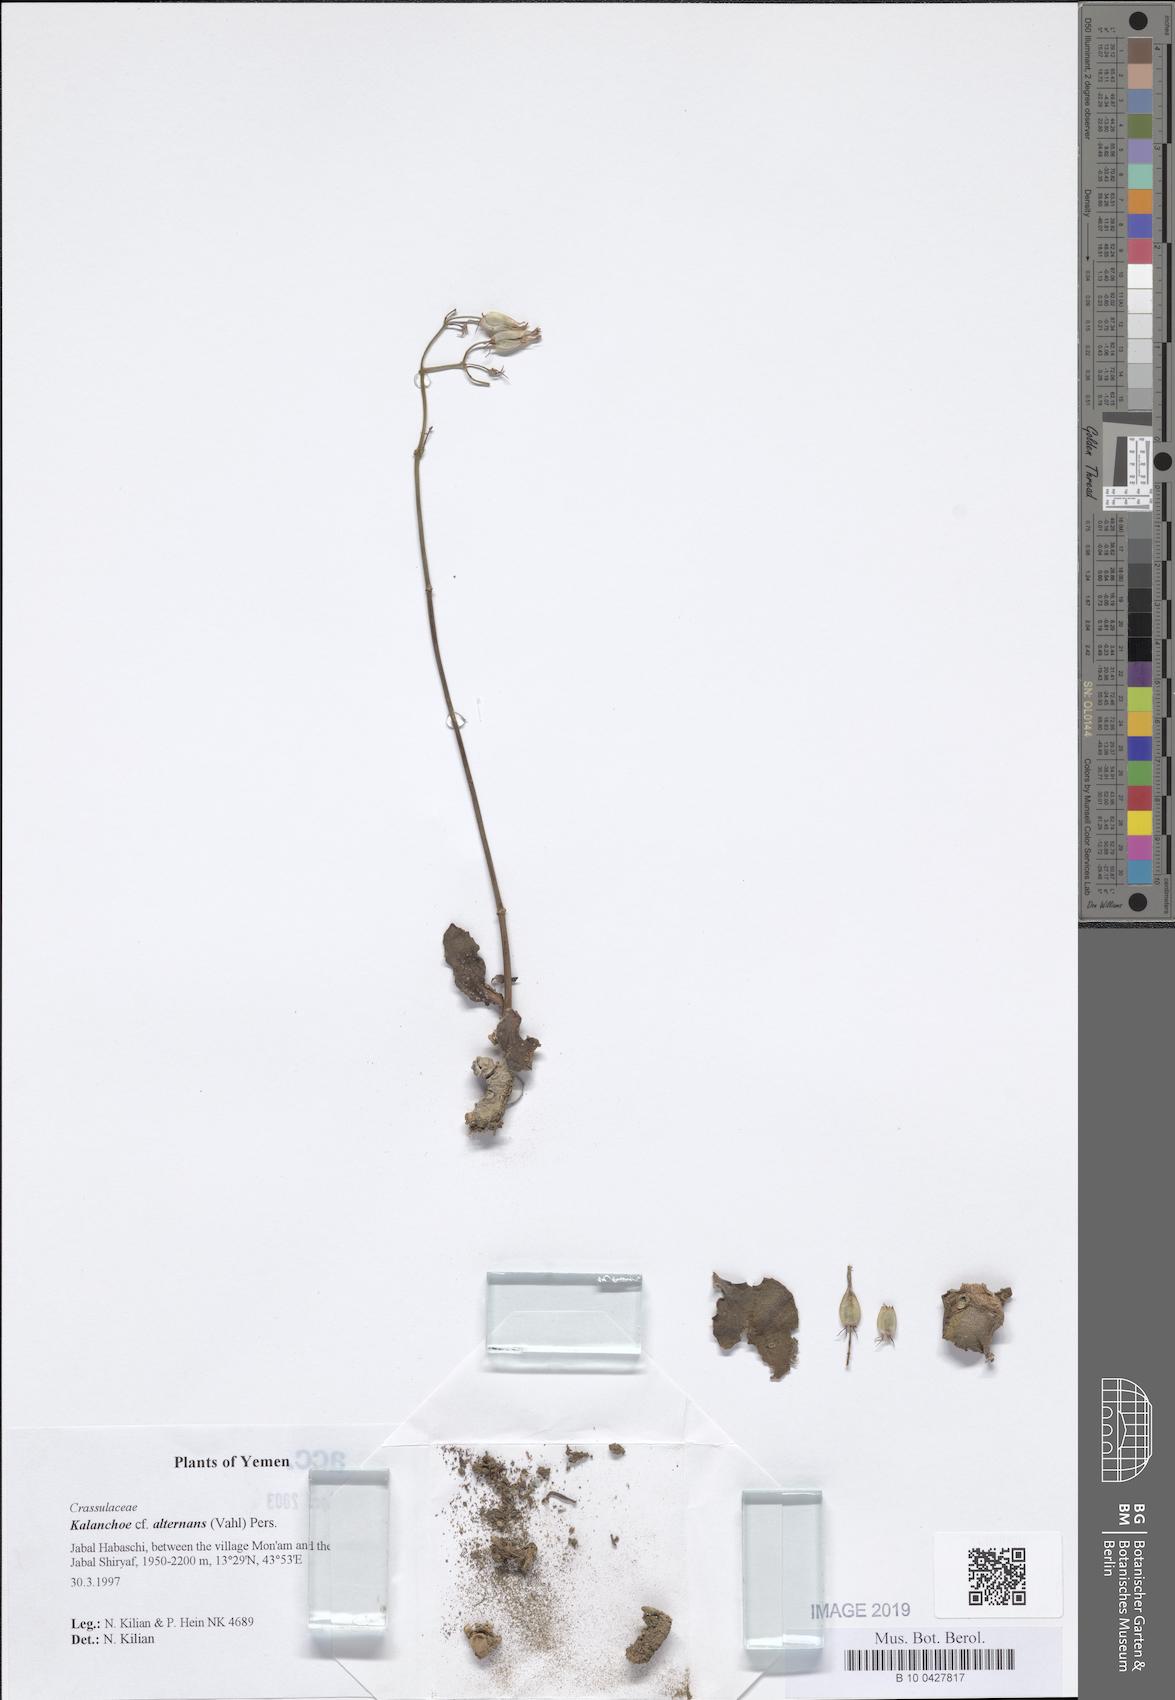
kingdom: Plantae
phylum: Tracheophyta
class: Magnoliopsida
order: Saxifragales
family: Crassulaceae
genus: Kalanchoe
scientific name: Kalanchoe alternans
